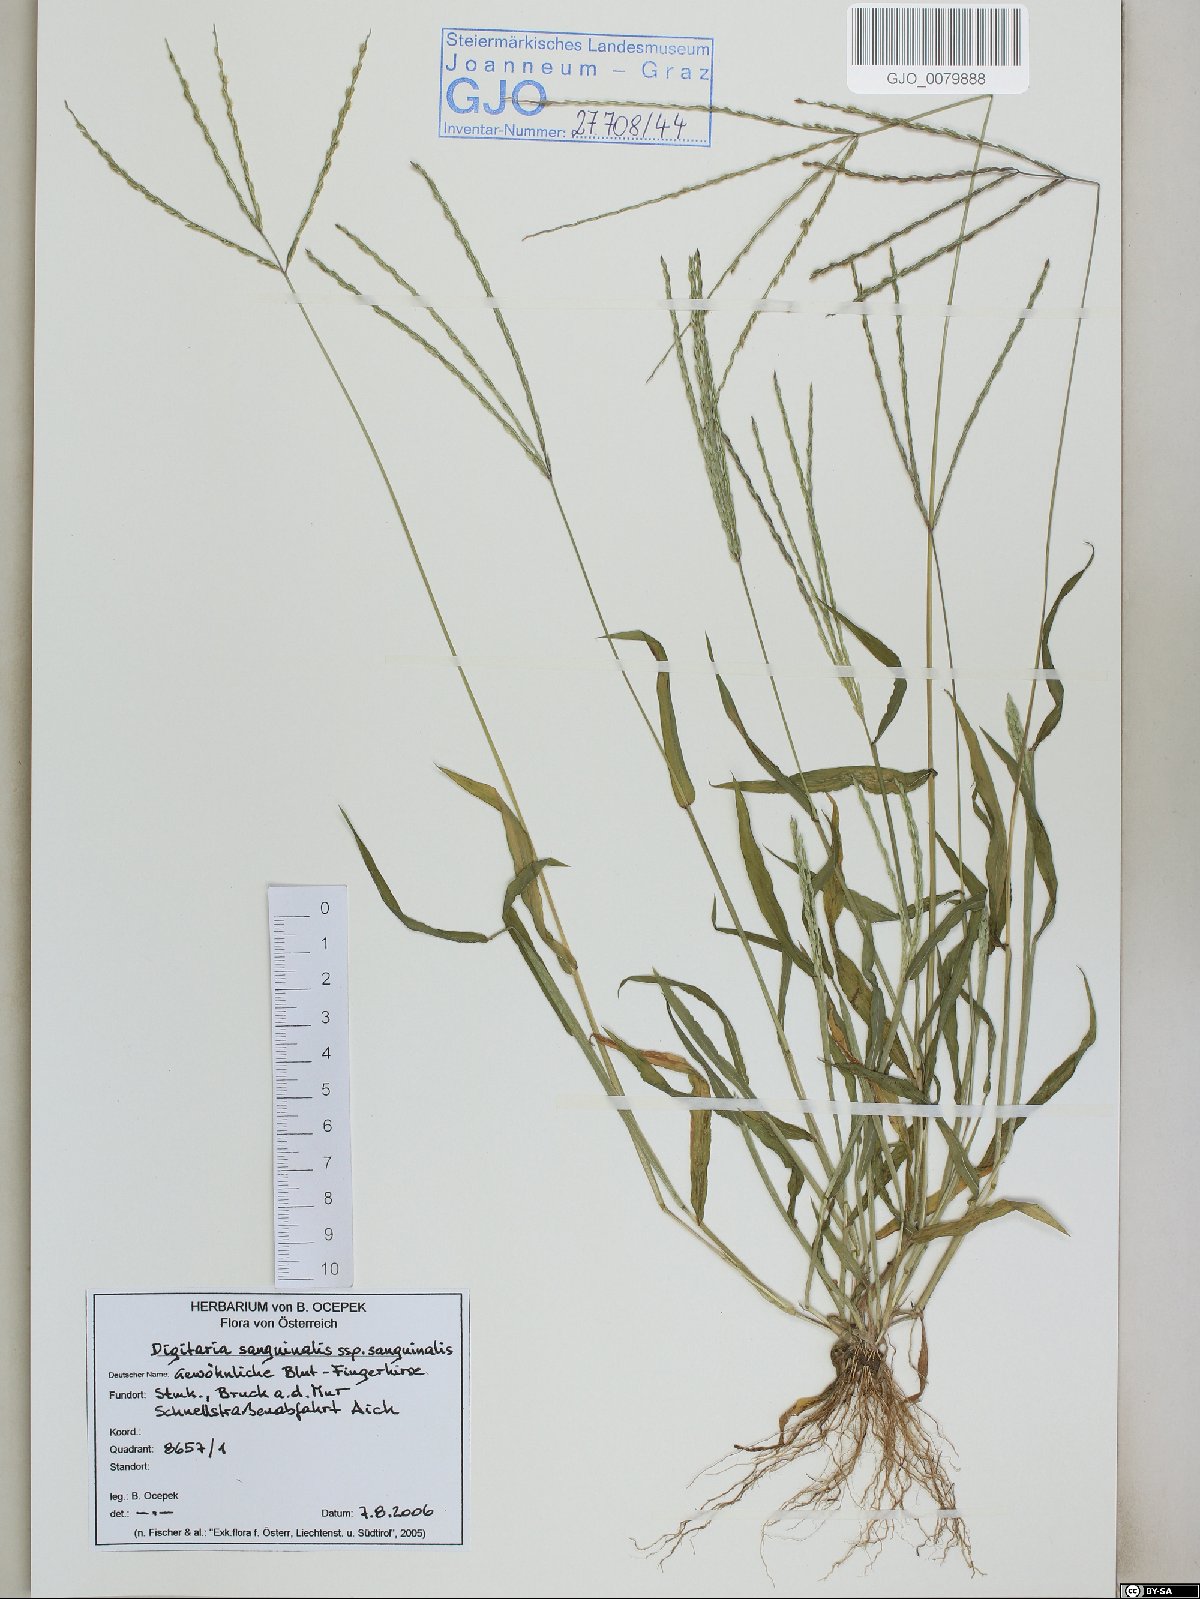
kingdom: Plantae
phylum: Tracheophyta
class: Liliopsida
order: Poales
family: Poaceae
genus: Digitaria
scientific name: Digitaria sanguinalis
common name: Hairy crabgrass
